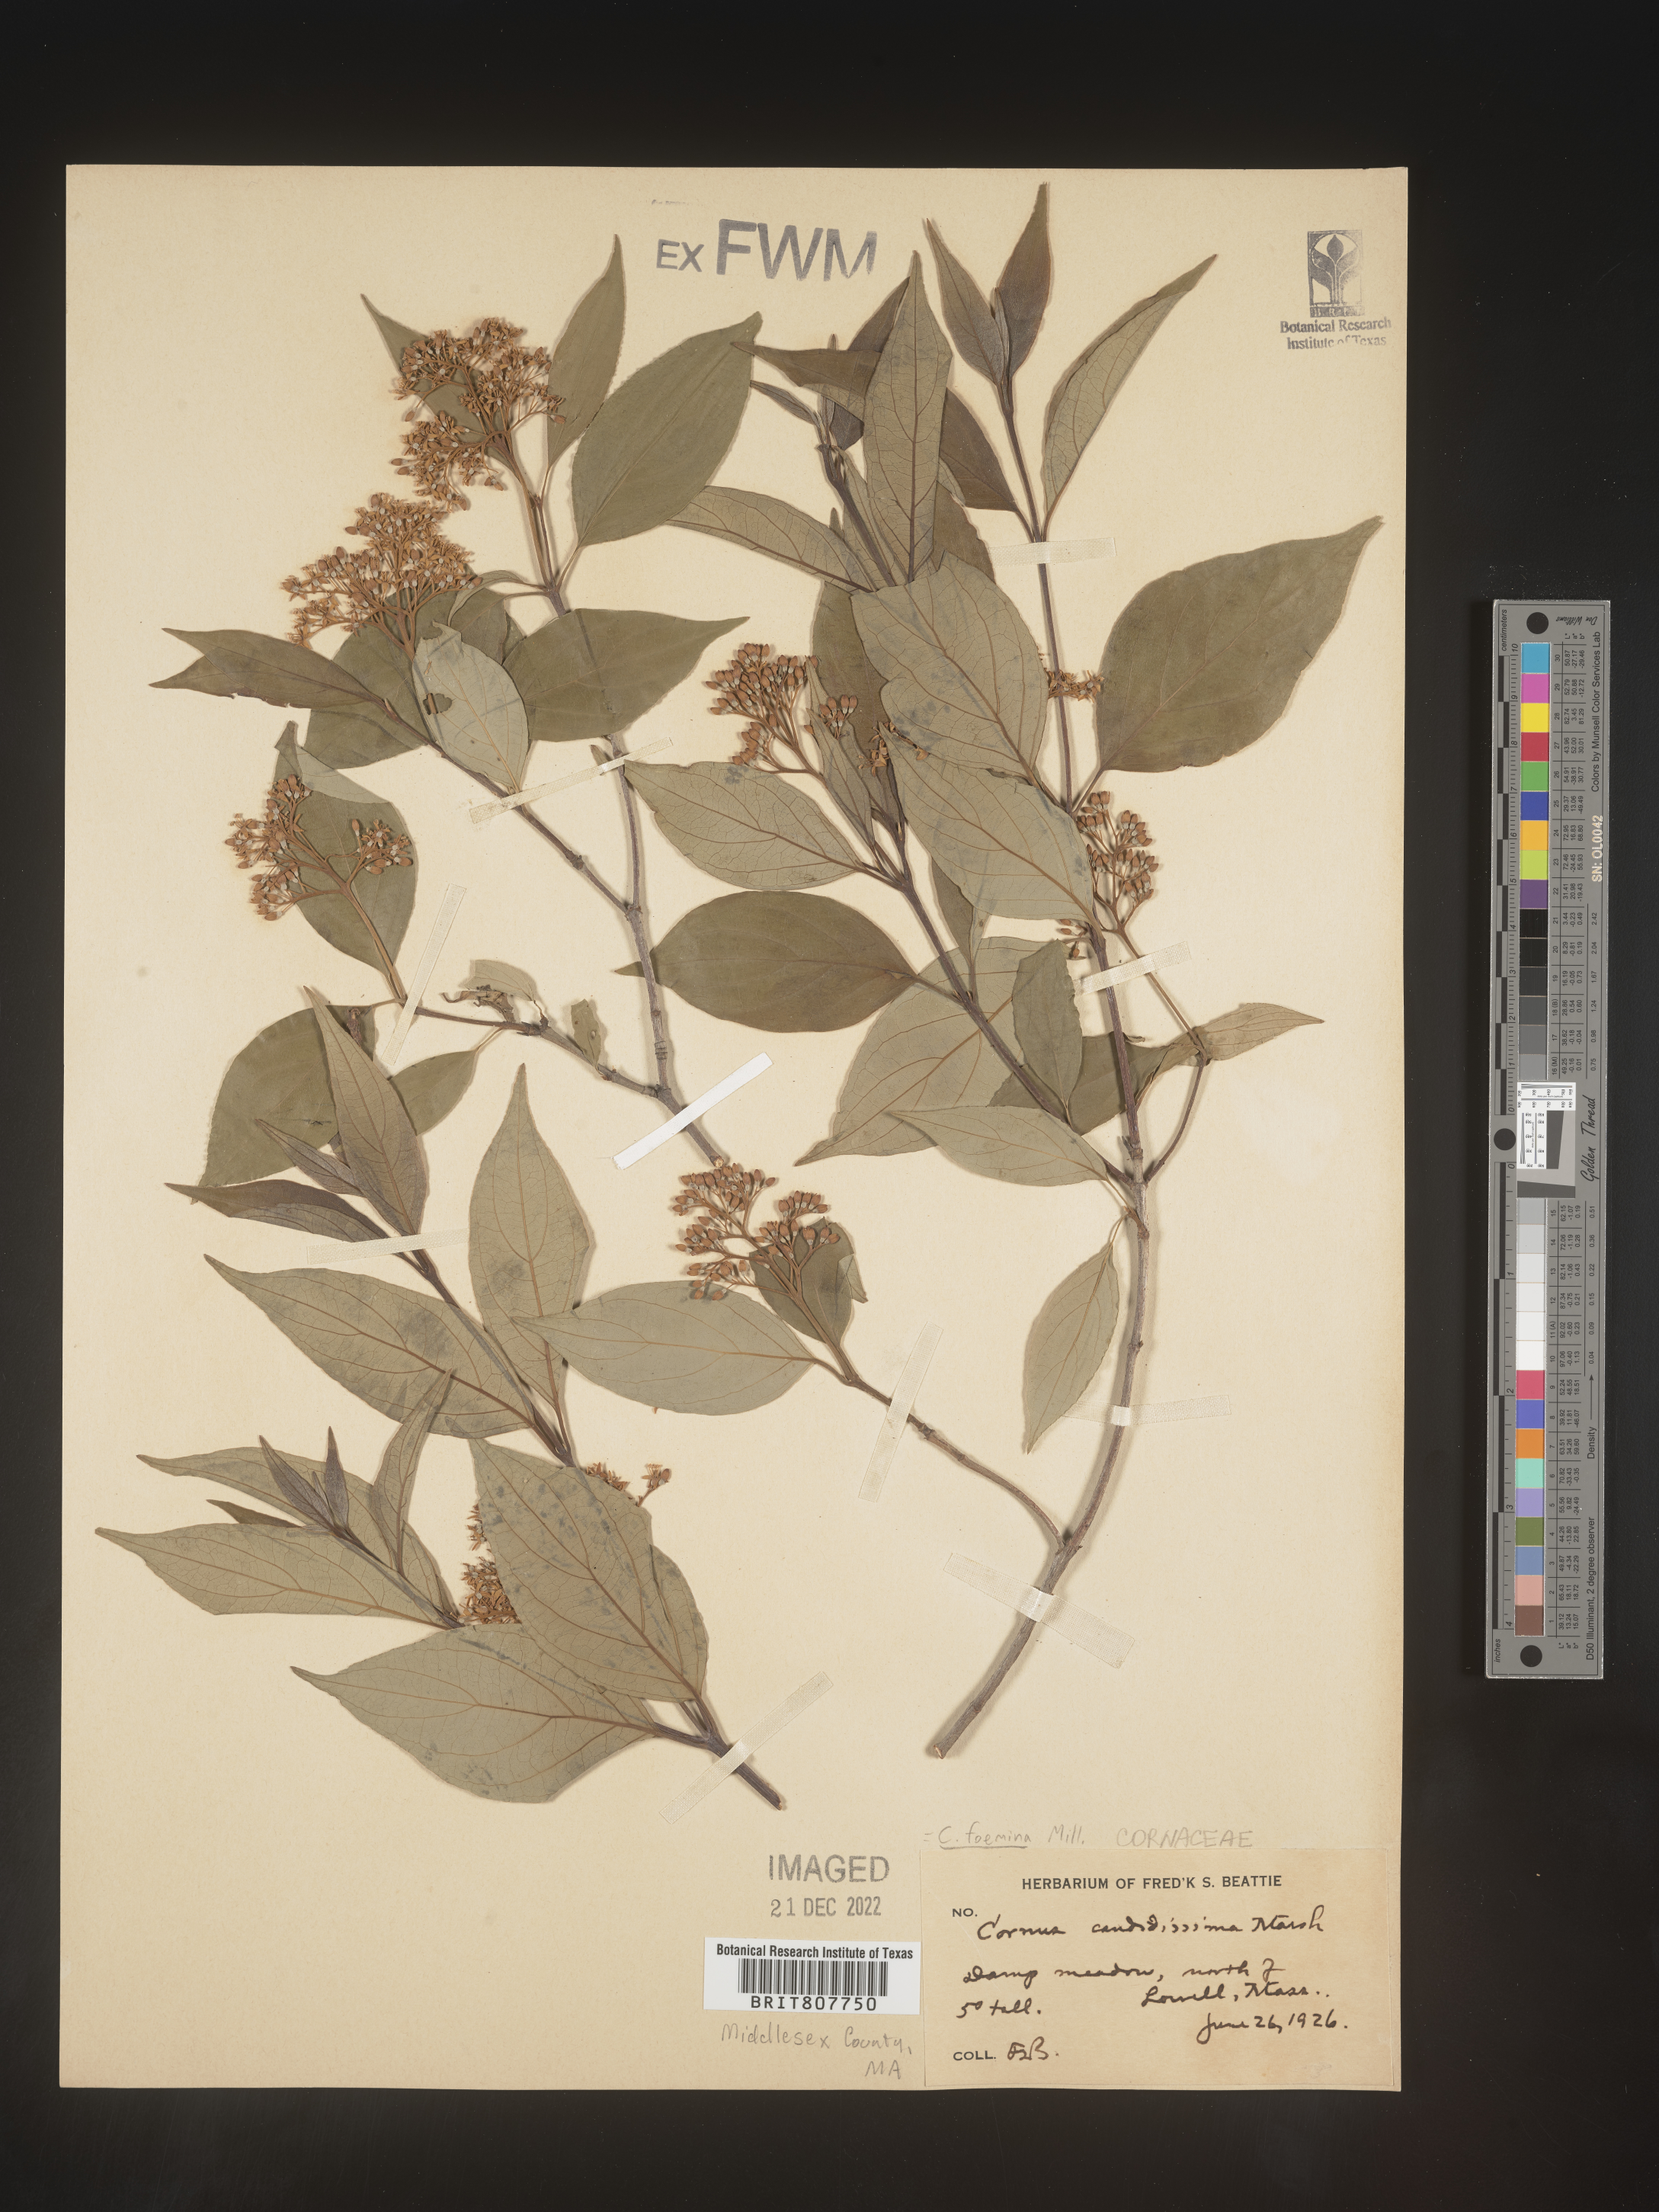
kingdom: Plantae
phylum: Tracheophyta
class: Magnoliopsida
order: Cornales
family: Cornaceae
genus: Cornus
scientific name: Cornus foemina
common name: Swamp dogwood
